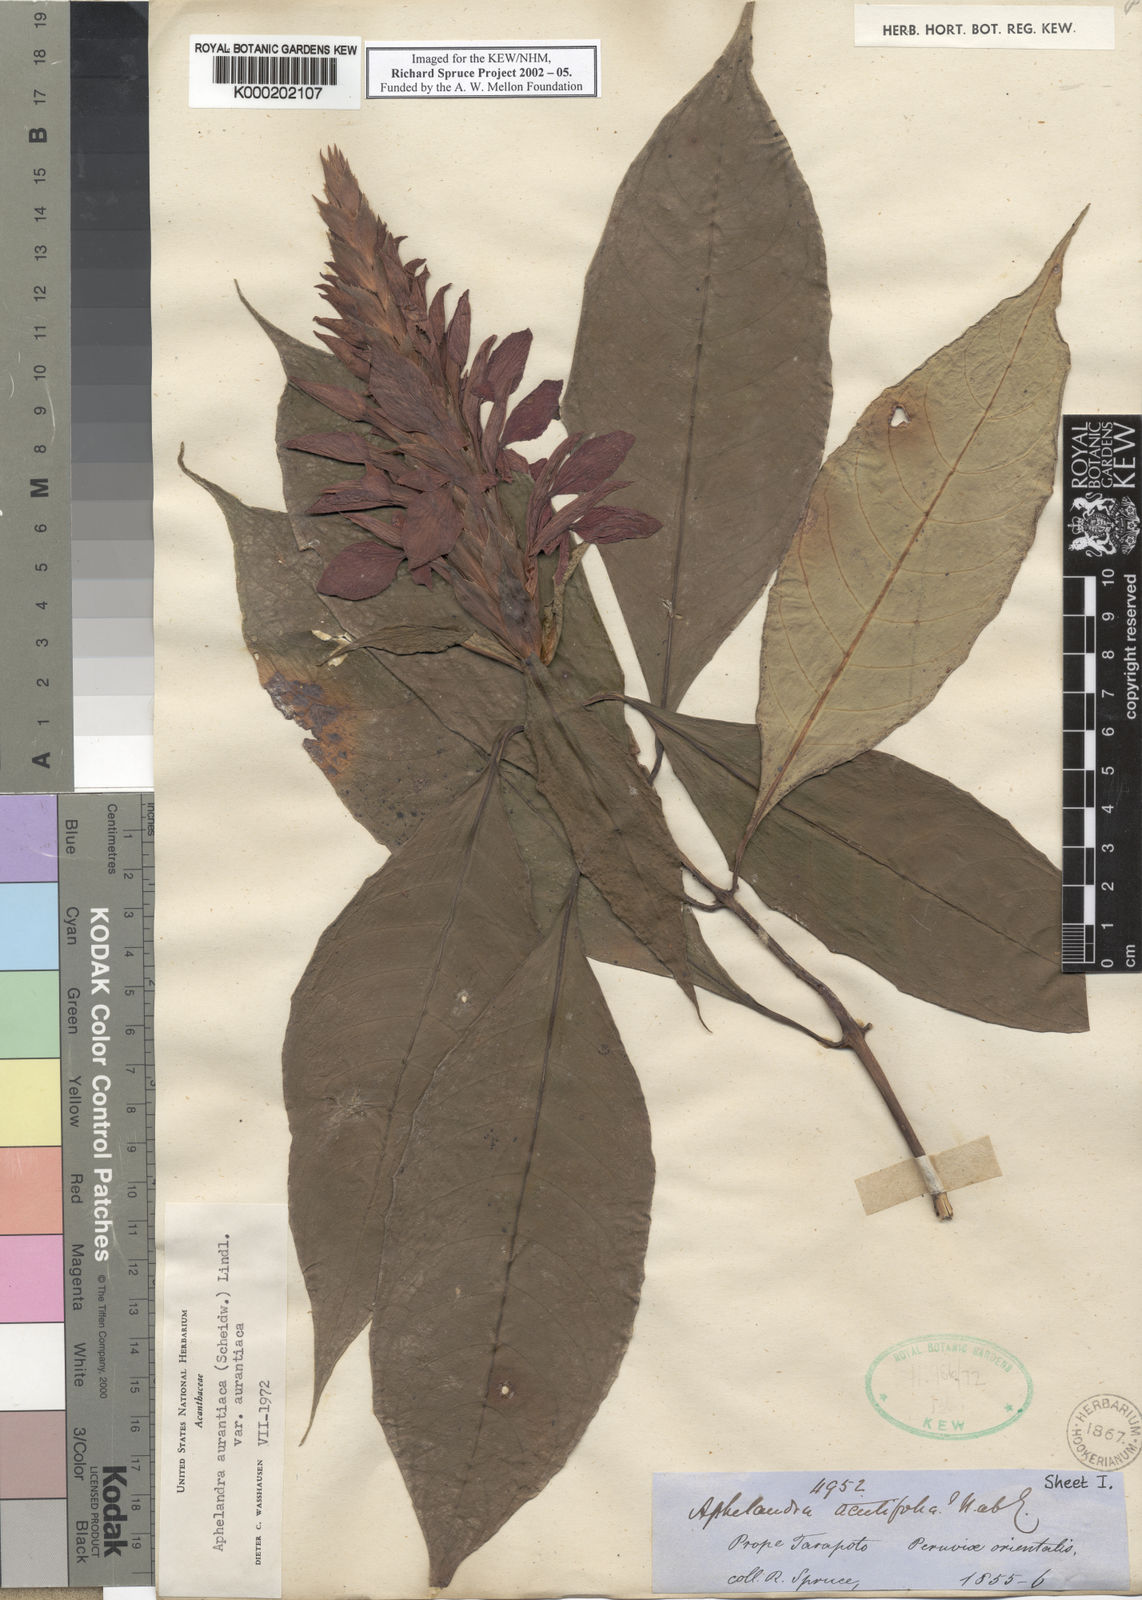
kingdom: Plantae
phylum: Tracheophyta
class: Magnoliopsida
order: Lamiales
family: Acanthaceae
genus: Aphelandra
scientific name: Aphelandra
